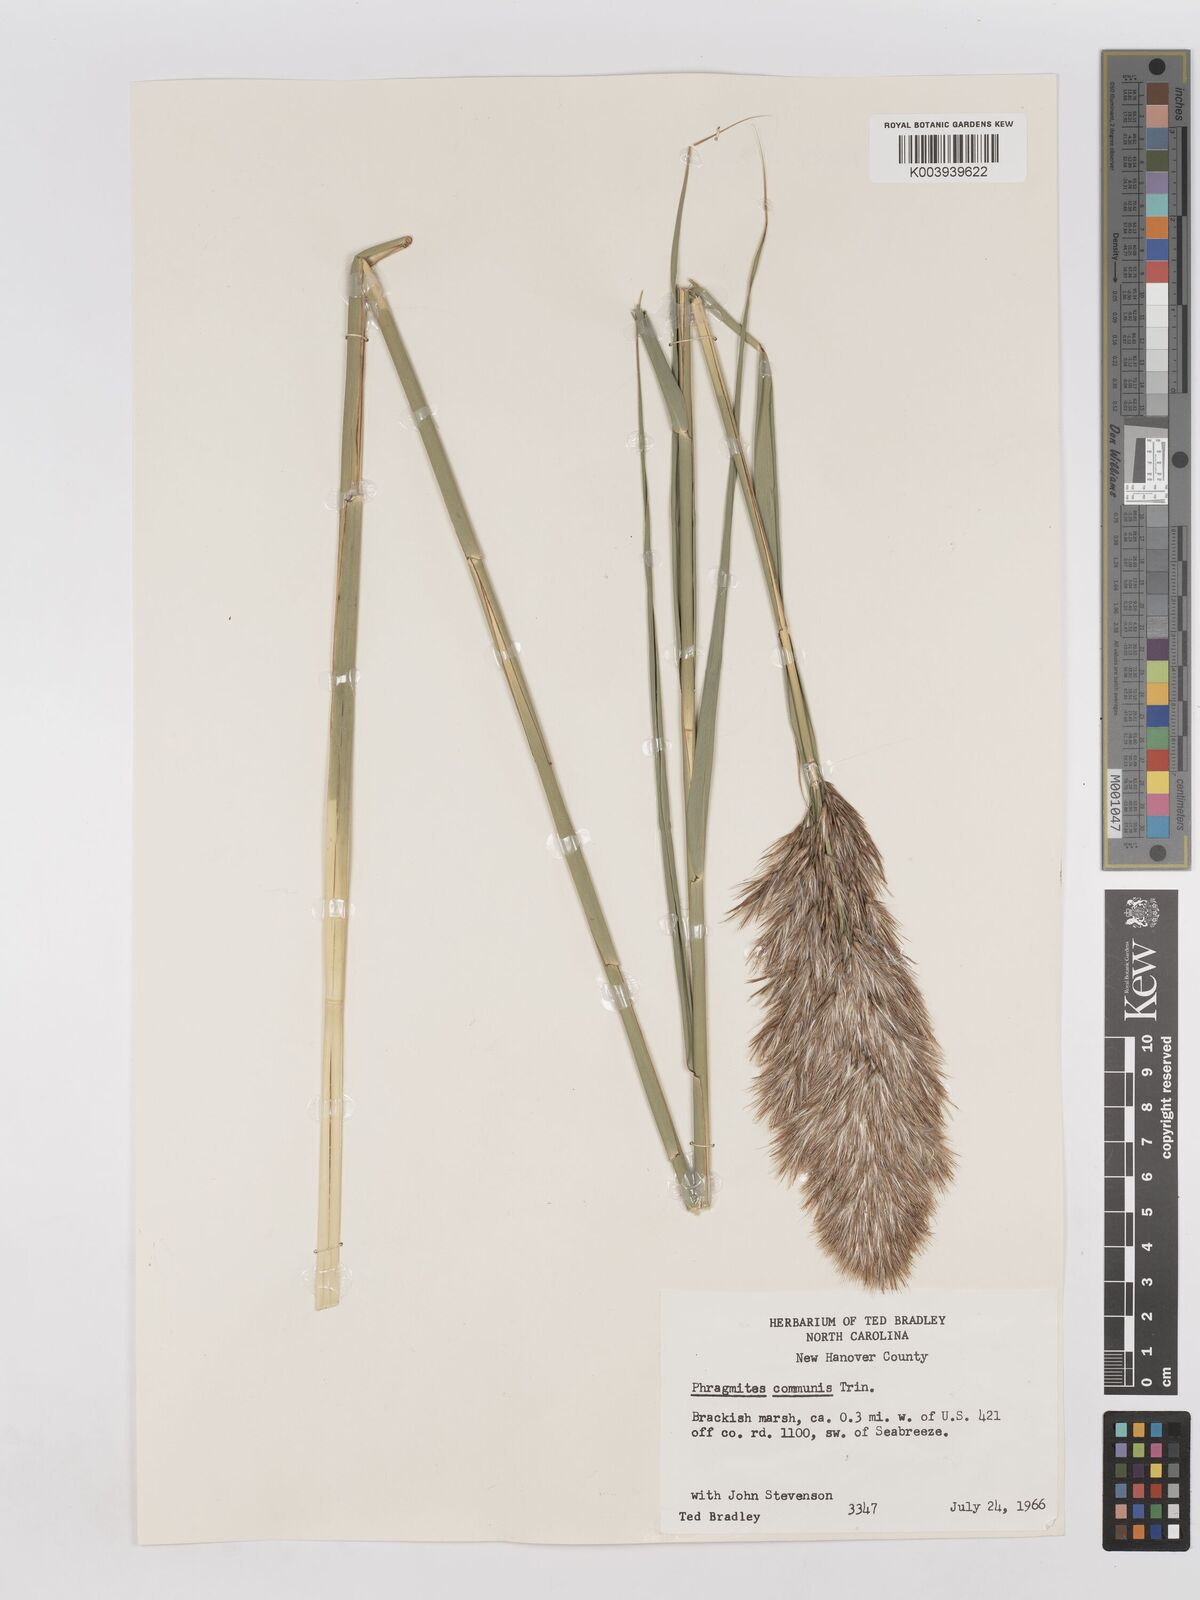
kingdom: Plantae
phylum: Tracheophyta
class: Liliopsida
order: Poales
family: Poaceae
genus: Phragmites
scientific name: Phragmites australis
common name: Common reed
